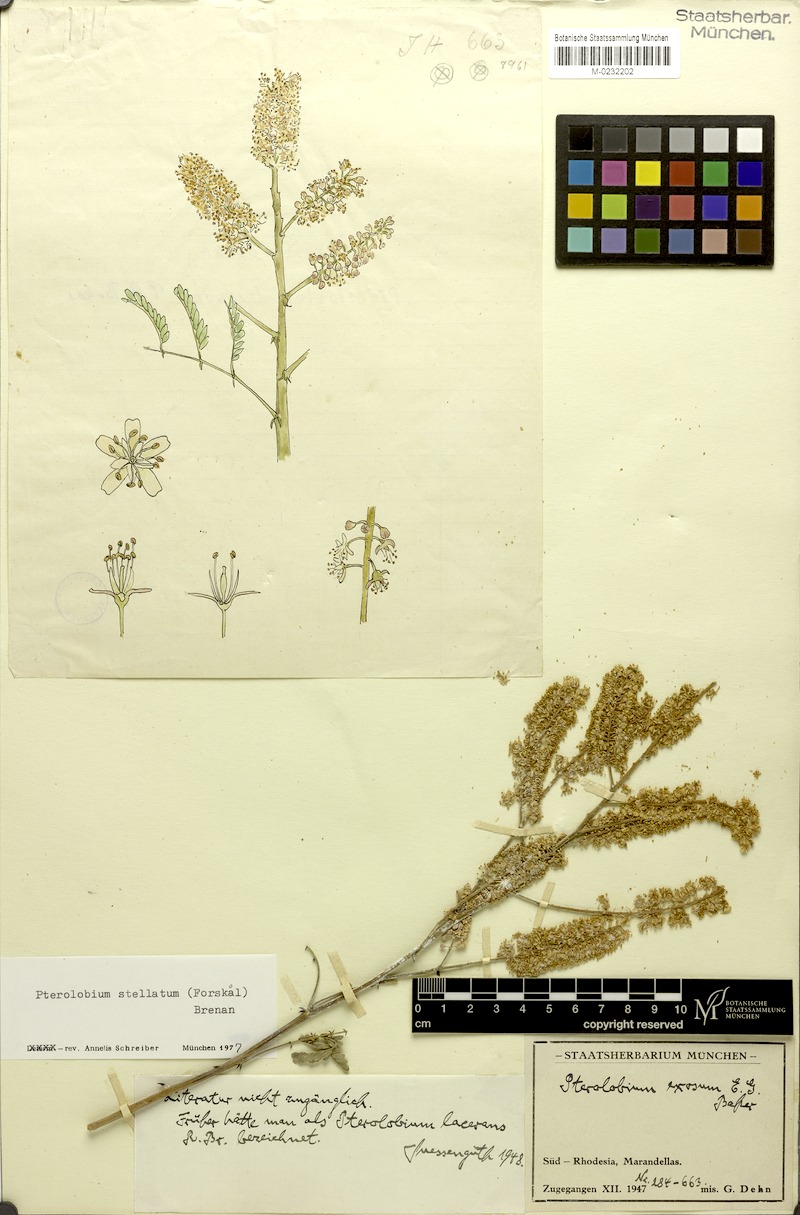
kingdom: Plantae
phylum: Tracheophyta
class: Magnoliopsida
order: Fabales
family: Fabaceae
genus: Pterolobium
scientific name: Pterolobium stellatum
